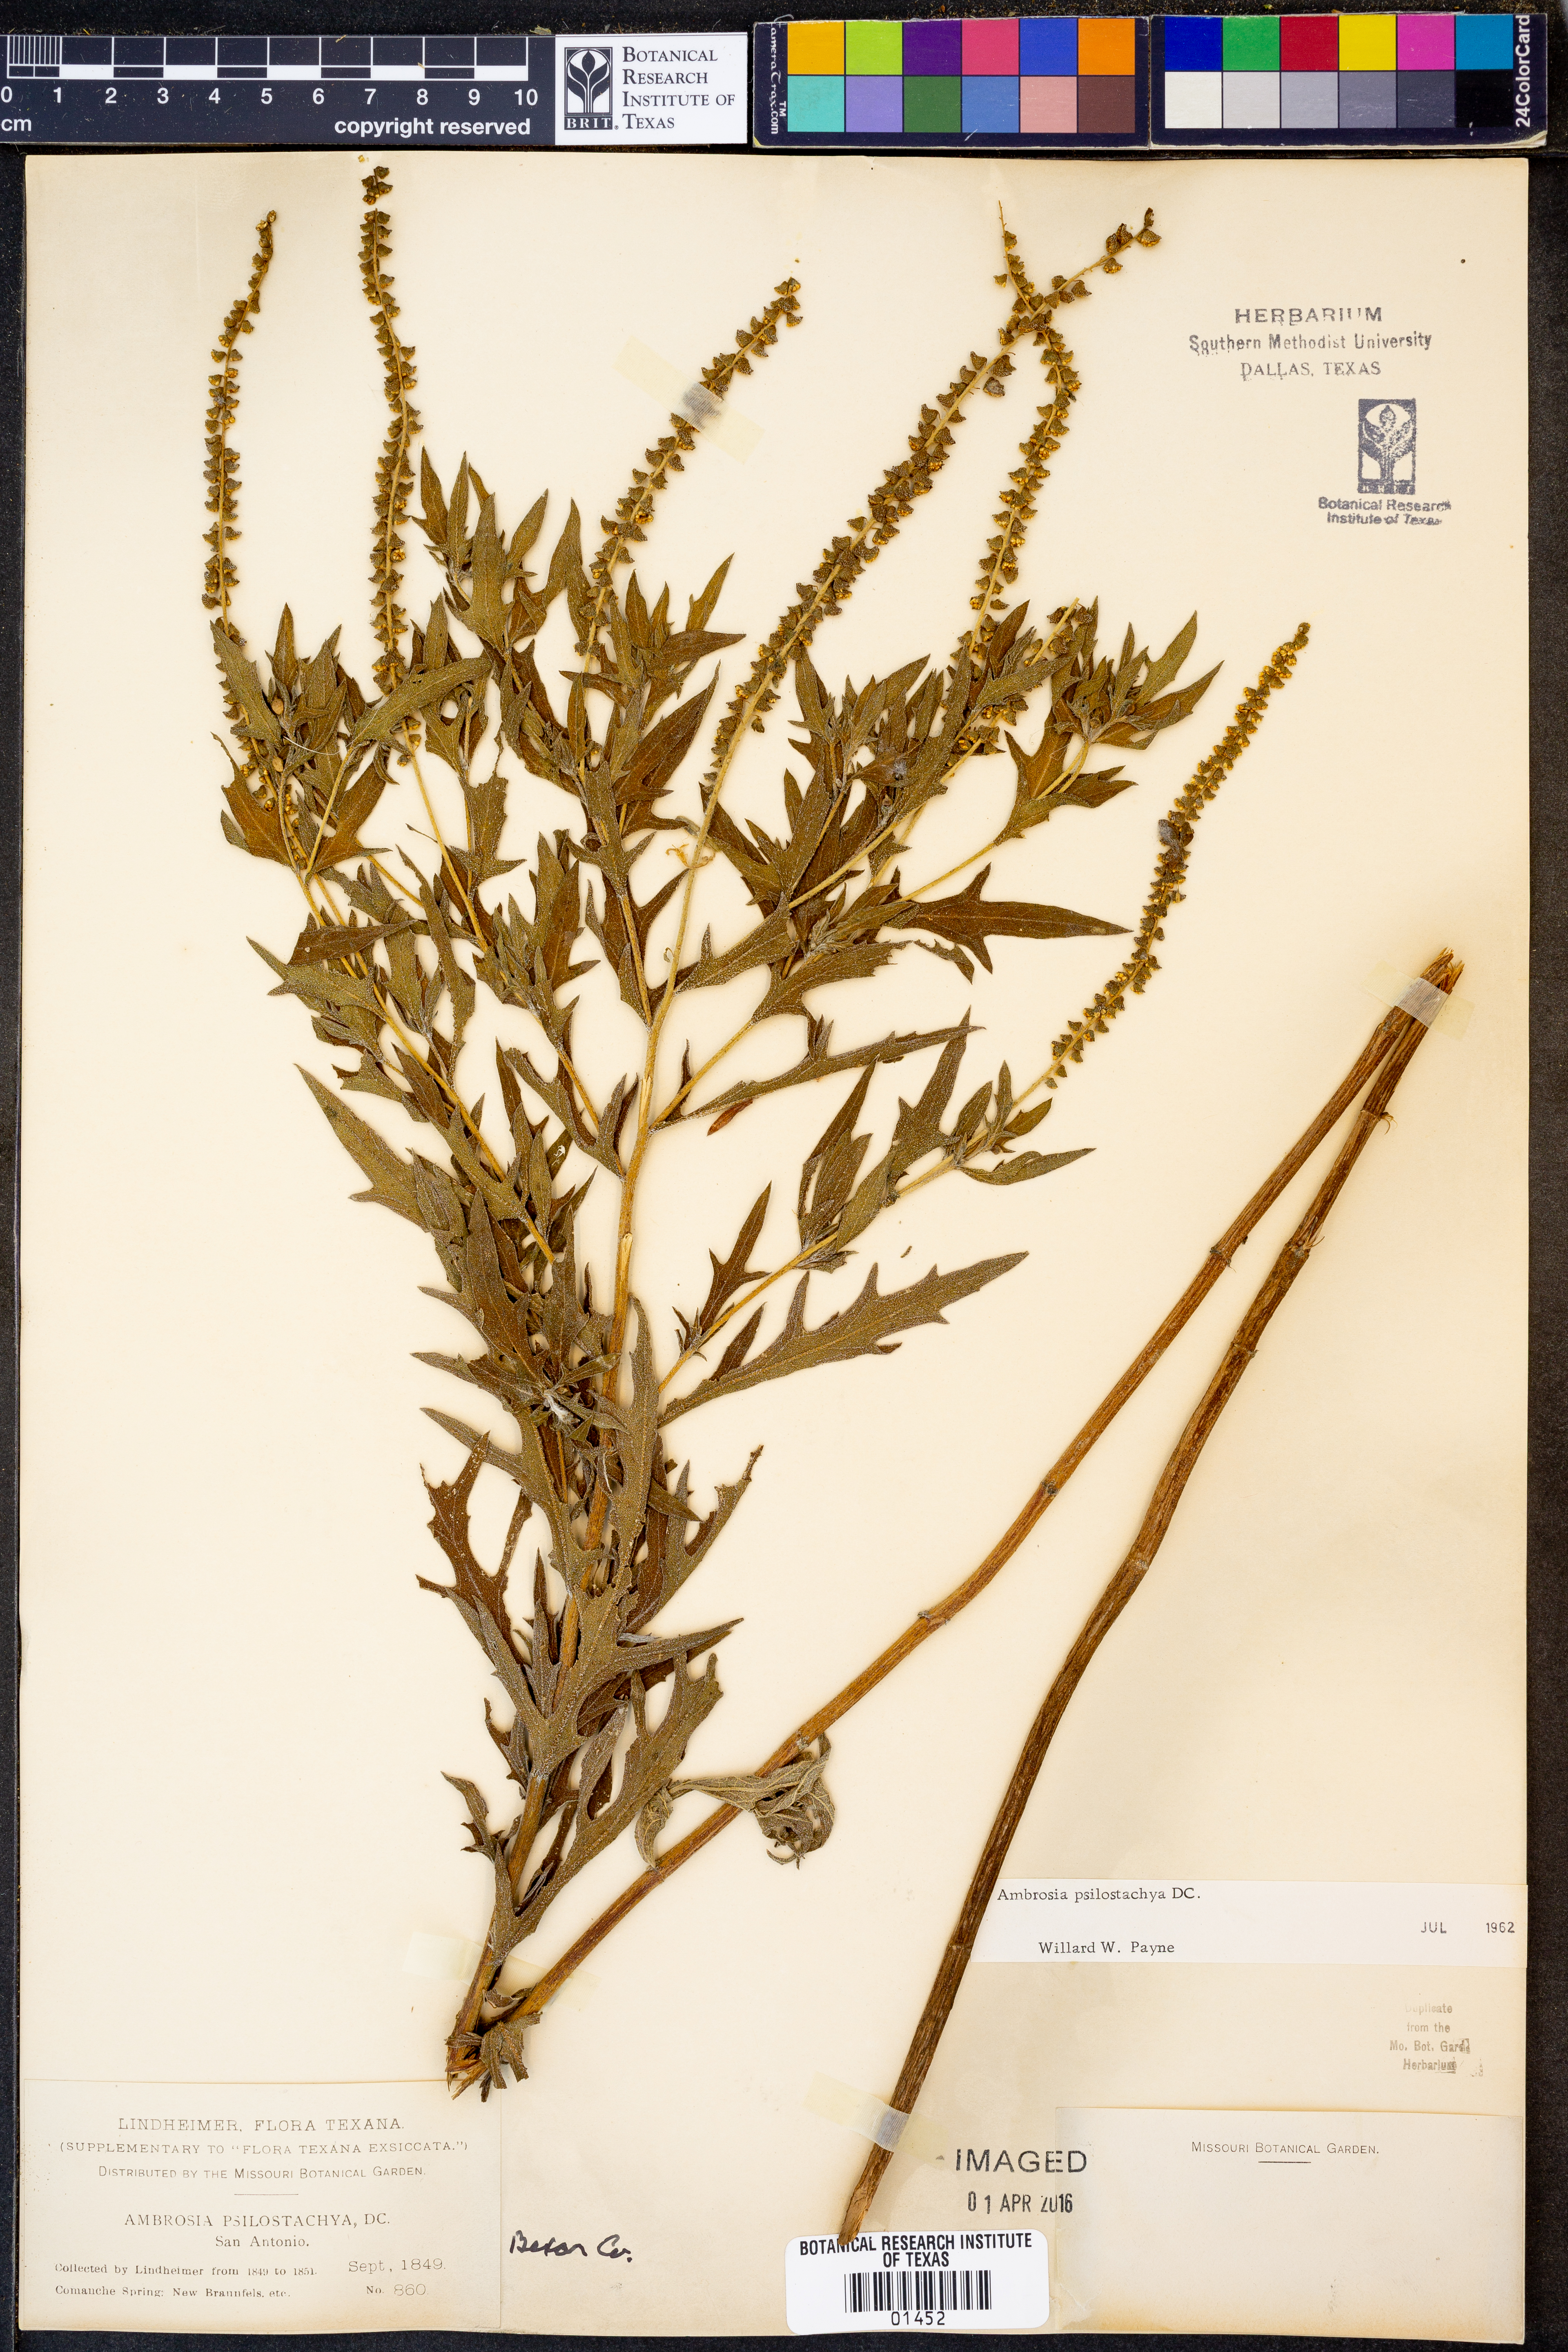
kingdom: Plantae
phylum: Tracheophyta
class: Magnoliopsida
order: Asterales
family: Asteraceae
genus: Ambrosia
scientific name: Ambrosia psilostachya
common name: Perennial ragweed
